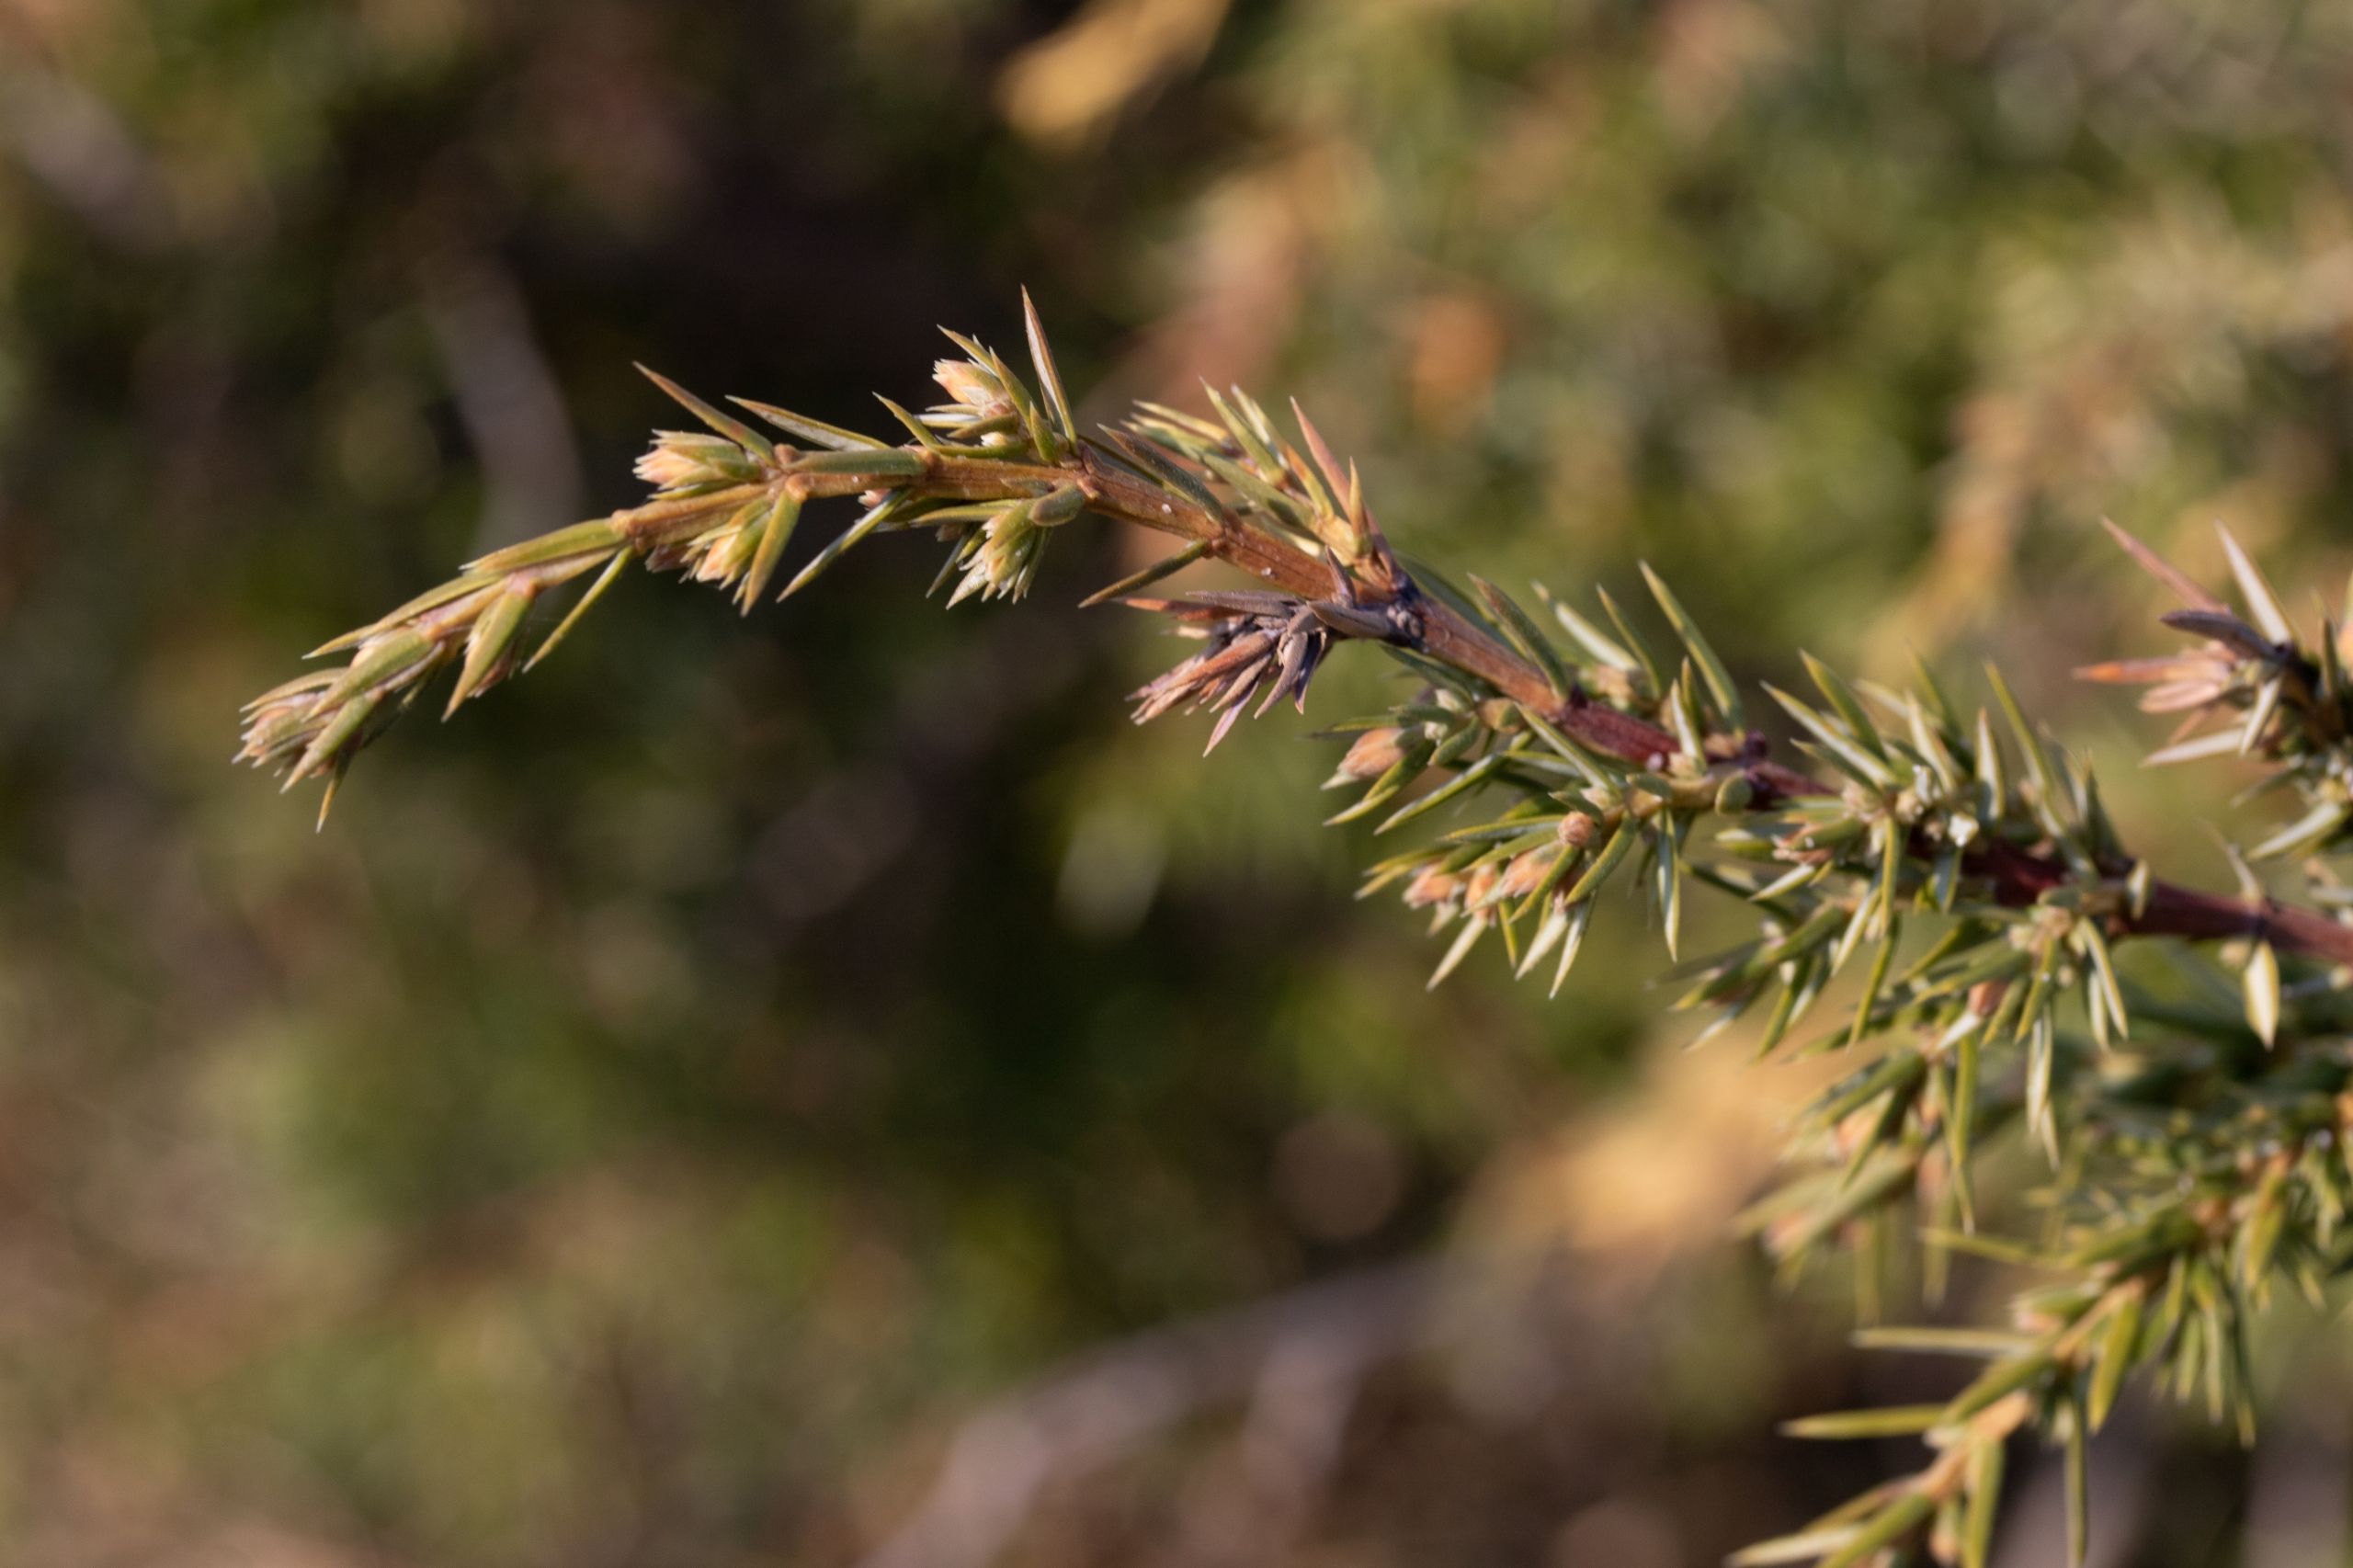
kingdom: Plantae
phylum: Tracheophyta
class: Pinopsida
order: Pinales
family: Cupressaceae
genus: Juniperus
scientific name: Juniperus communis
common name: Almindelig ene
